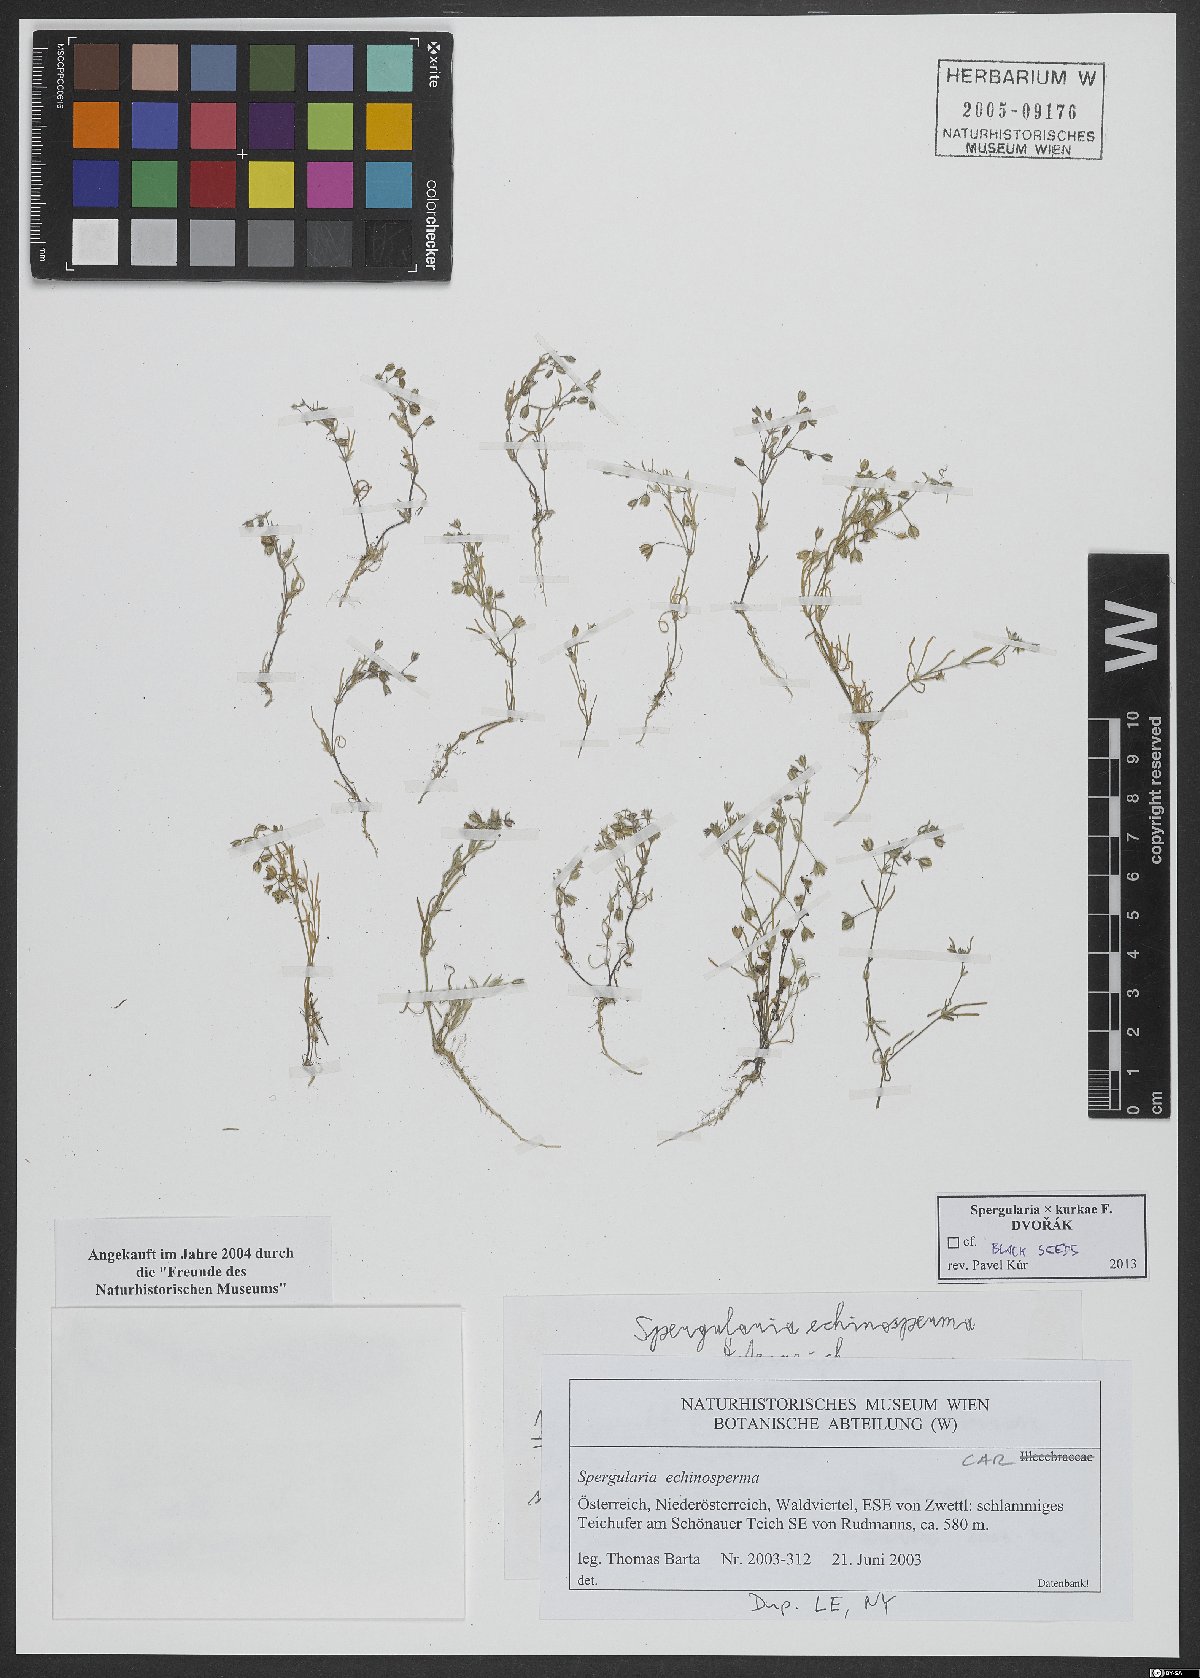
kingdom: Plantae
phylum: Tracheophyta
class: Magnoliopsida
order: Caryophyllales
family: Caryophyllaceae
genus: Spergularia
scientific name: Spergularia kurkae
